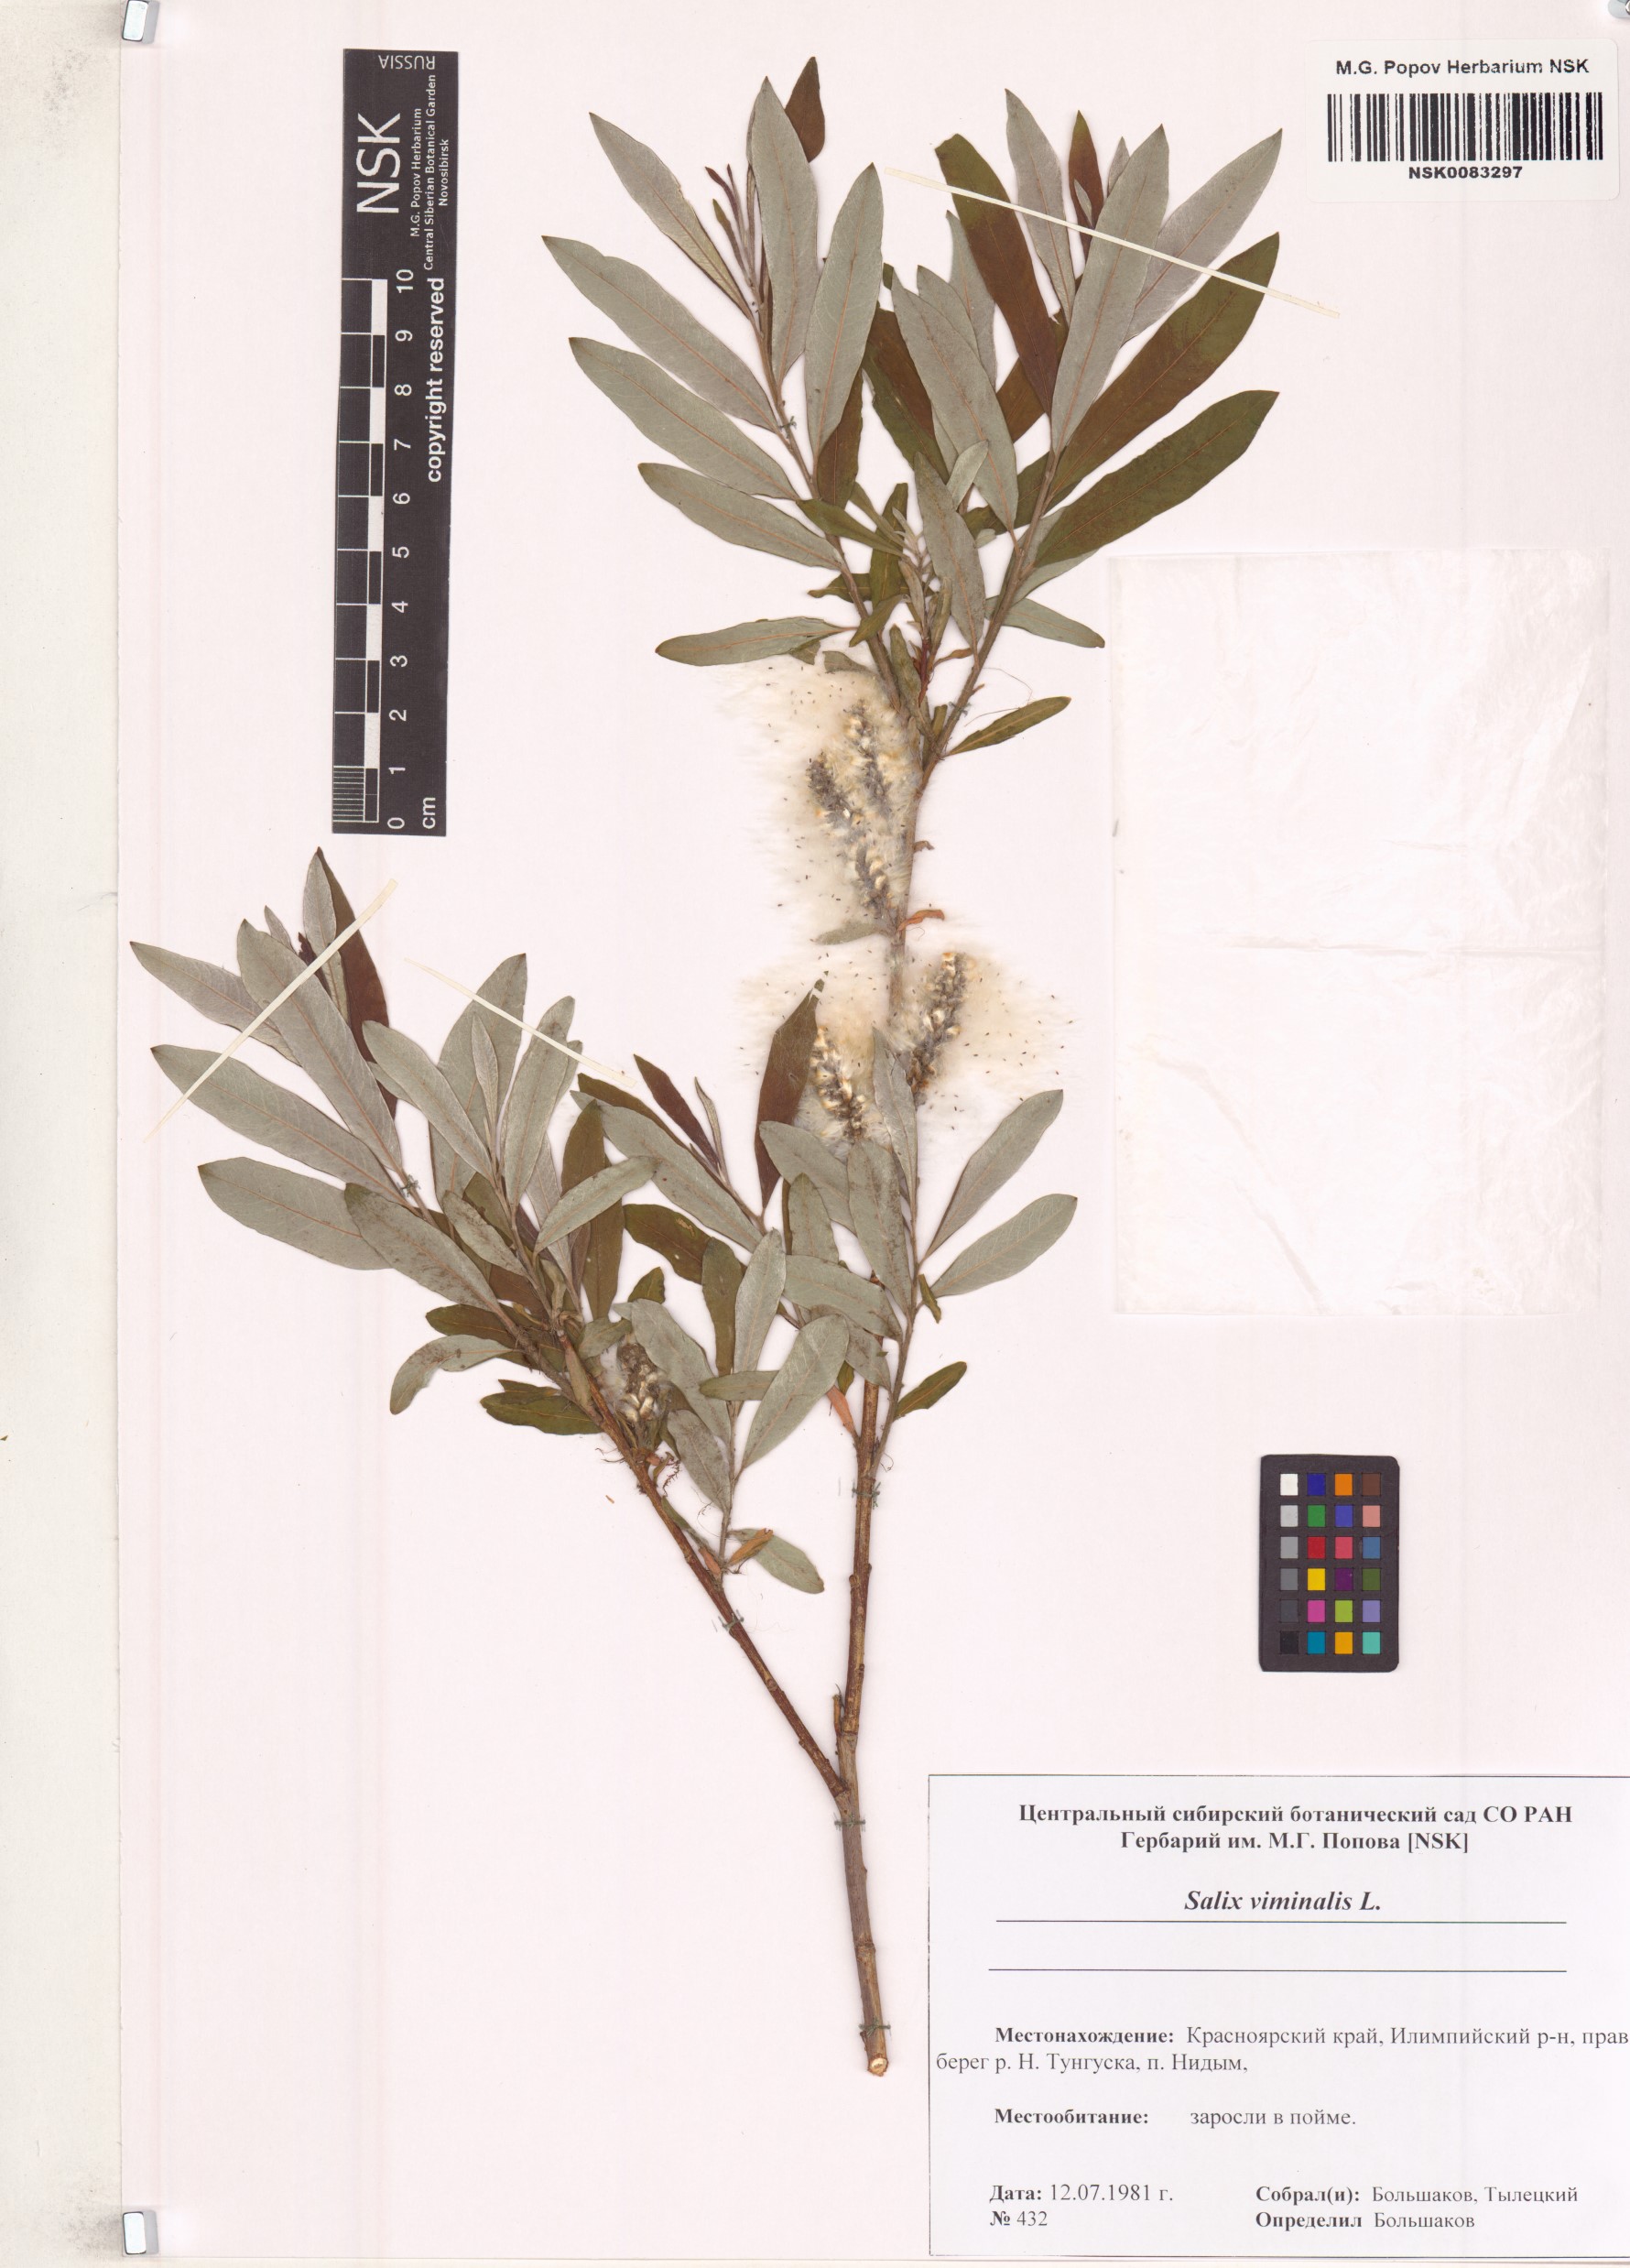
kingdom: Plantae
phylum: Tracheophyta
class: Magnoliopsida
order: Malpighiales
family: Salicaceae
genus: Salix
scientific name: Salix viminalis
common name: Osier
